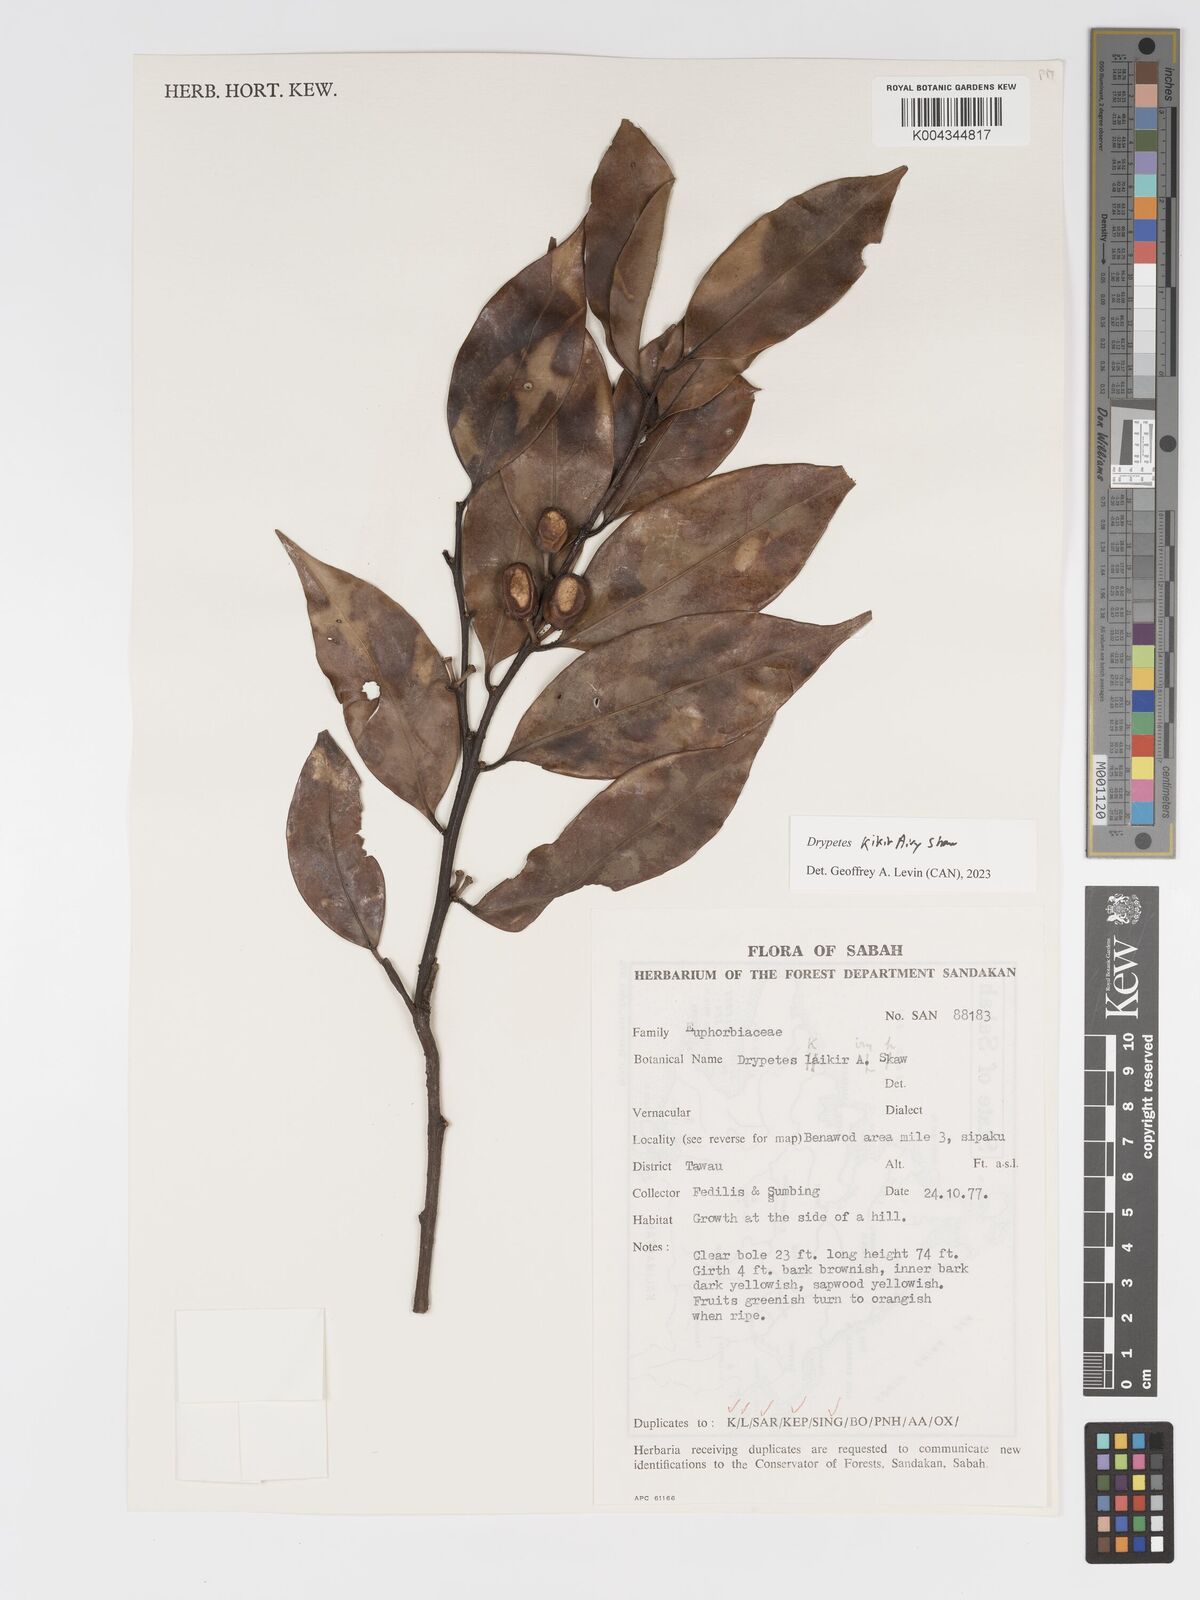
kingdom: Plantae
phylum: Tracheophyta
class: Magnoliopsida
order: Malpighiales
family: Putranjivaceae
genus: Drypetes
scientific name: Drypetes kikir
